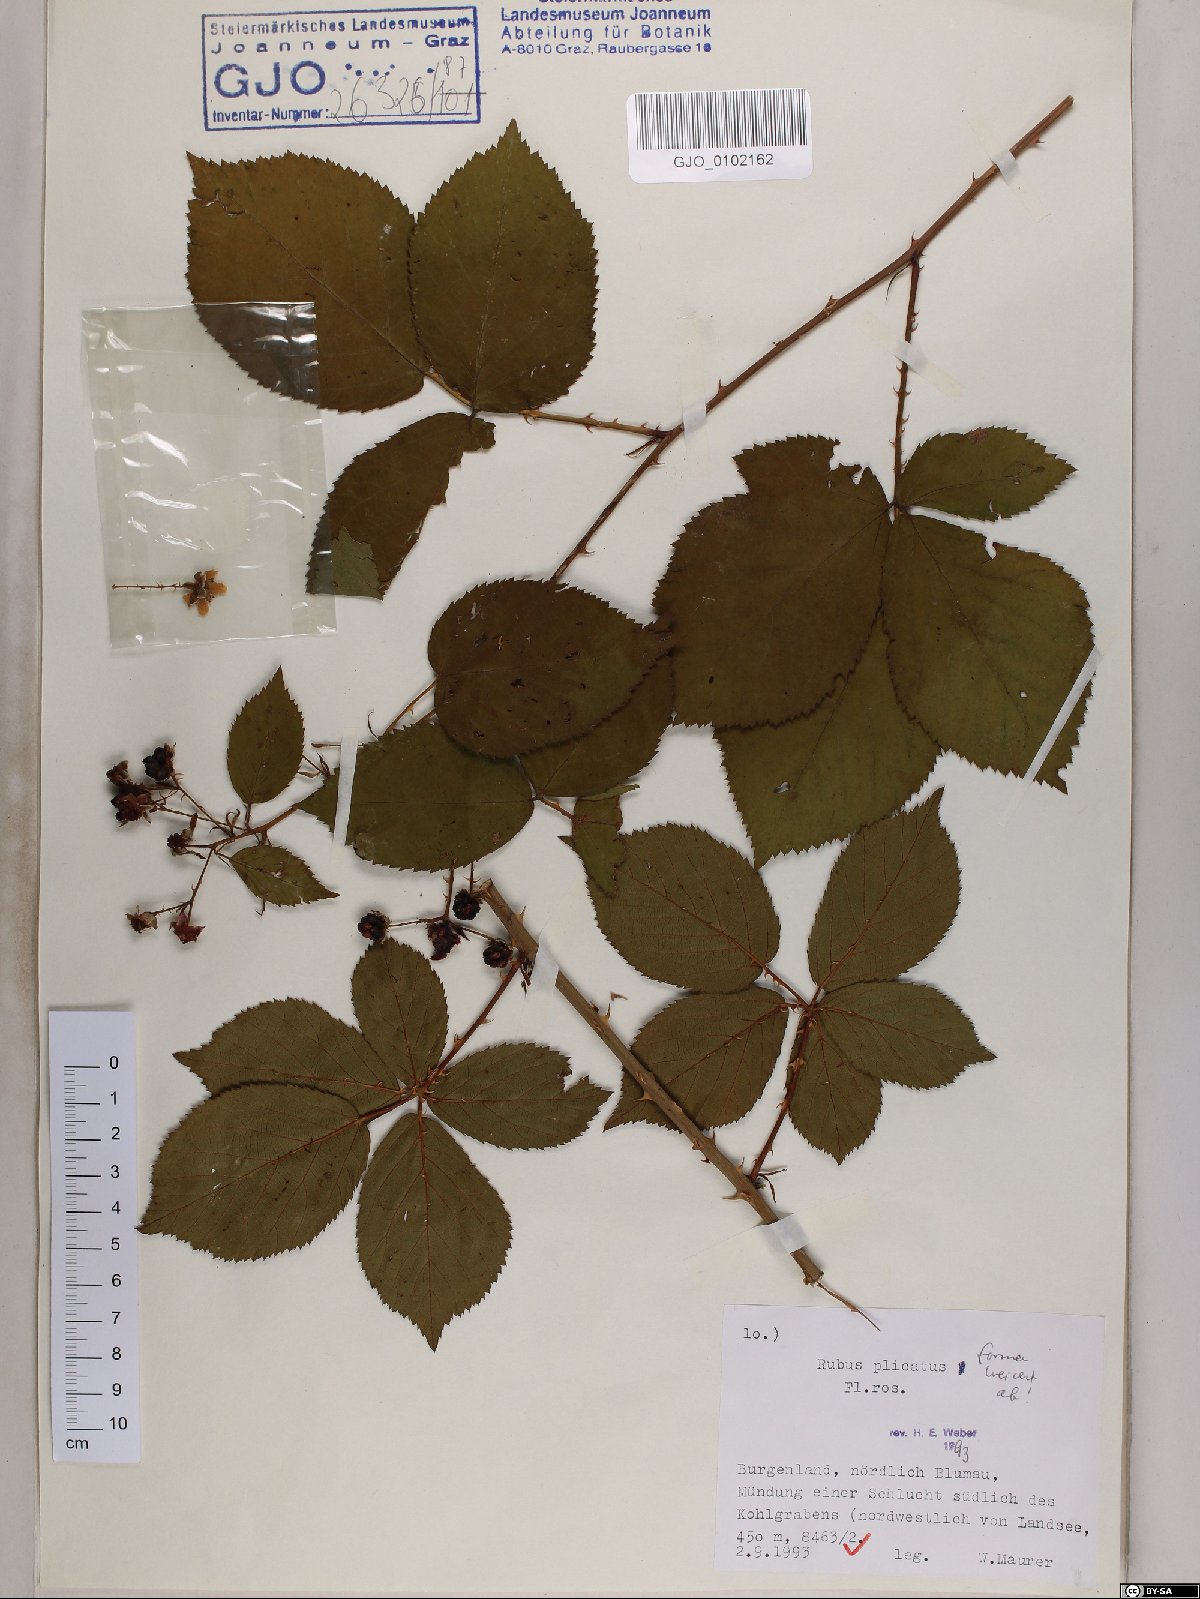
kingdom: Plantae
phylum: Tracheophyta
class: Magnoliopsida
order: Rosales
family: Rosaceae
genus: Rubus
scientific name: Rubus plicatus
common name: Plaited-leaved bramble
